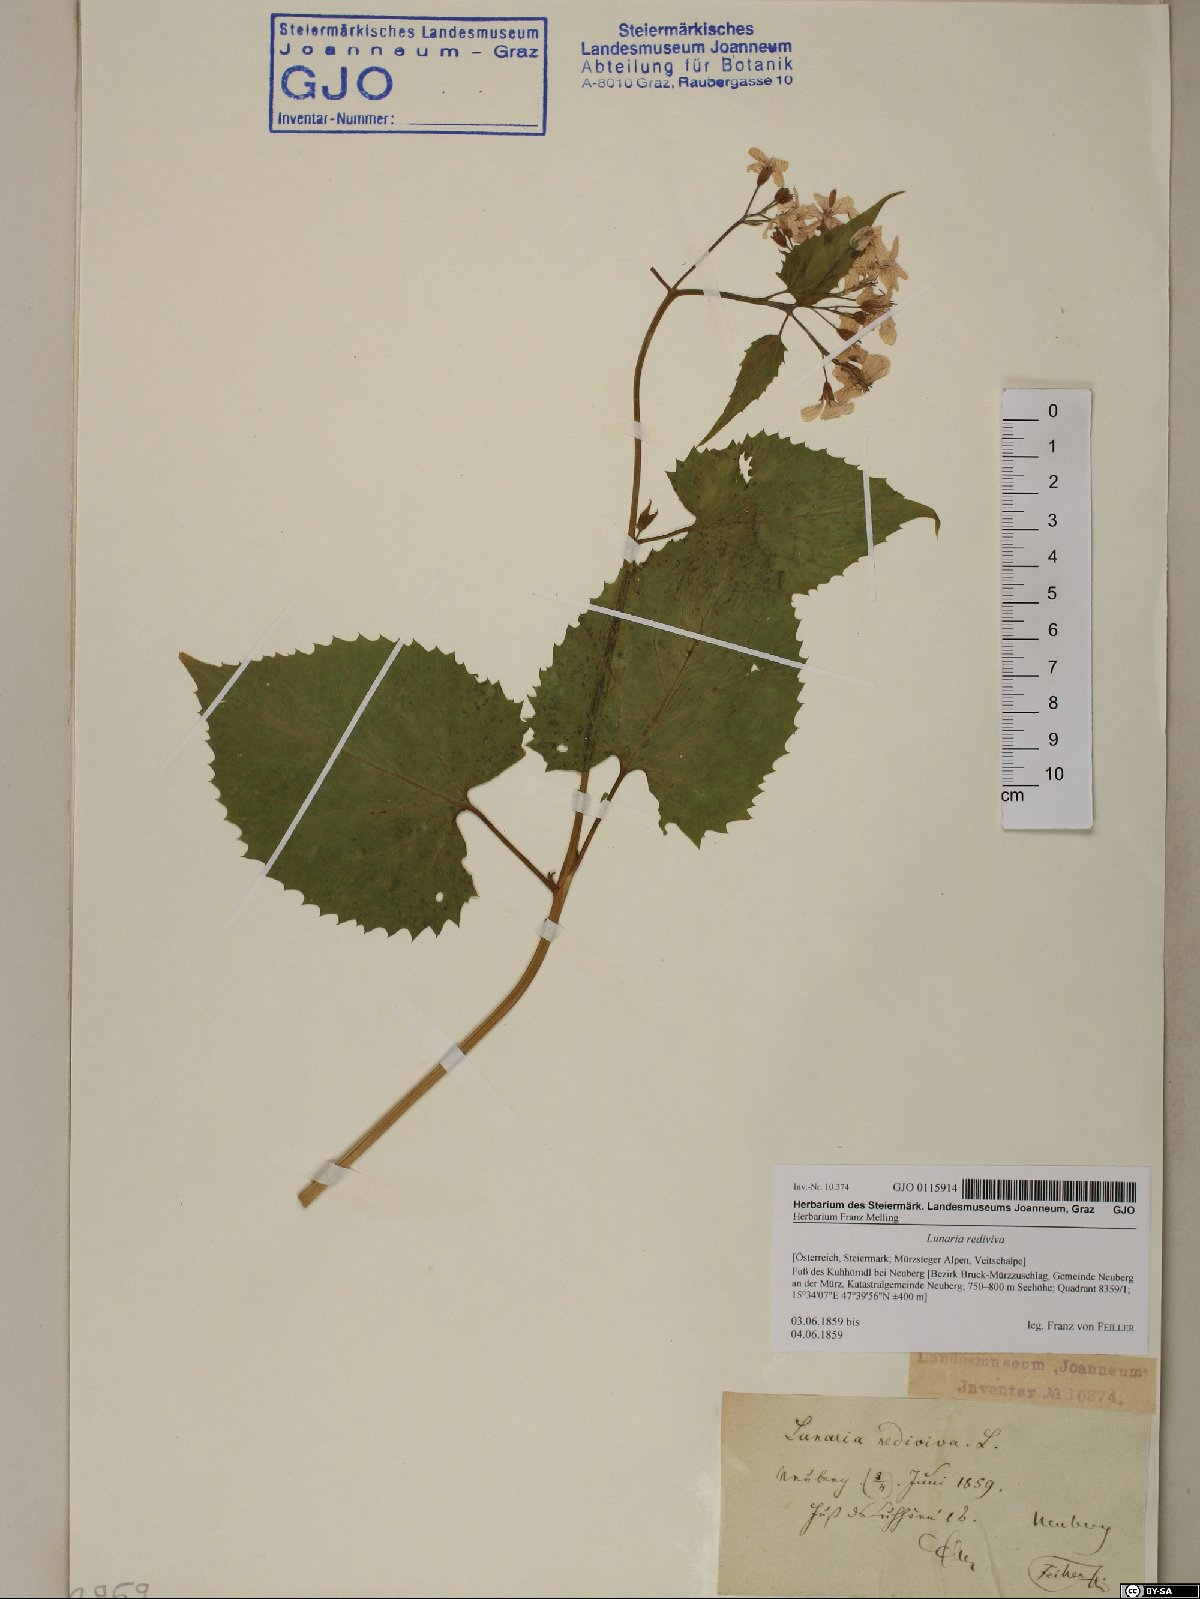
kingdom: Plantae
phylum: Tracheophyta
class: Magnoliopsida
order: Brassicales
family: Brassicaceae
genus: Lunaria
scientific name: Lunaria rediviva
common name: Perennial honesty
